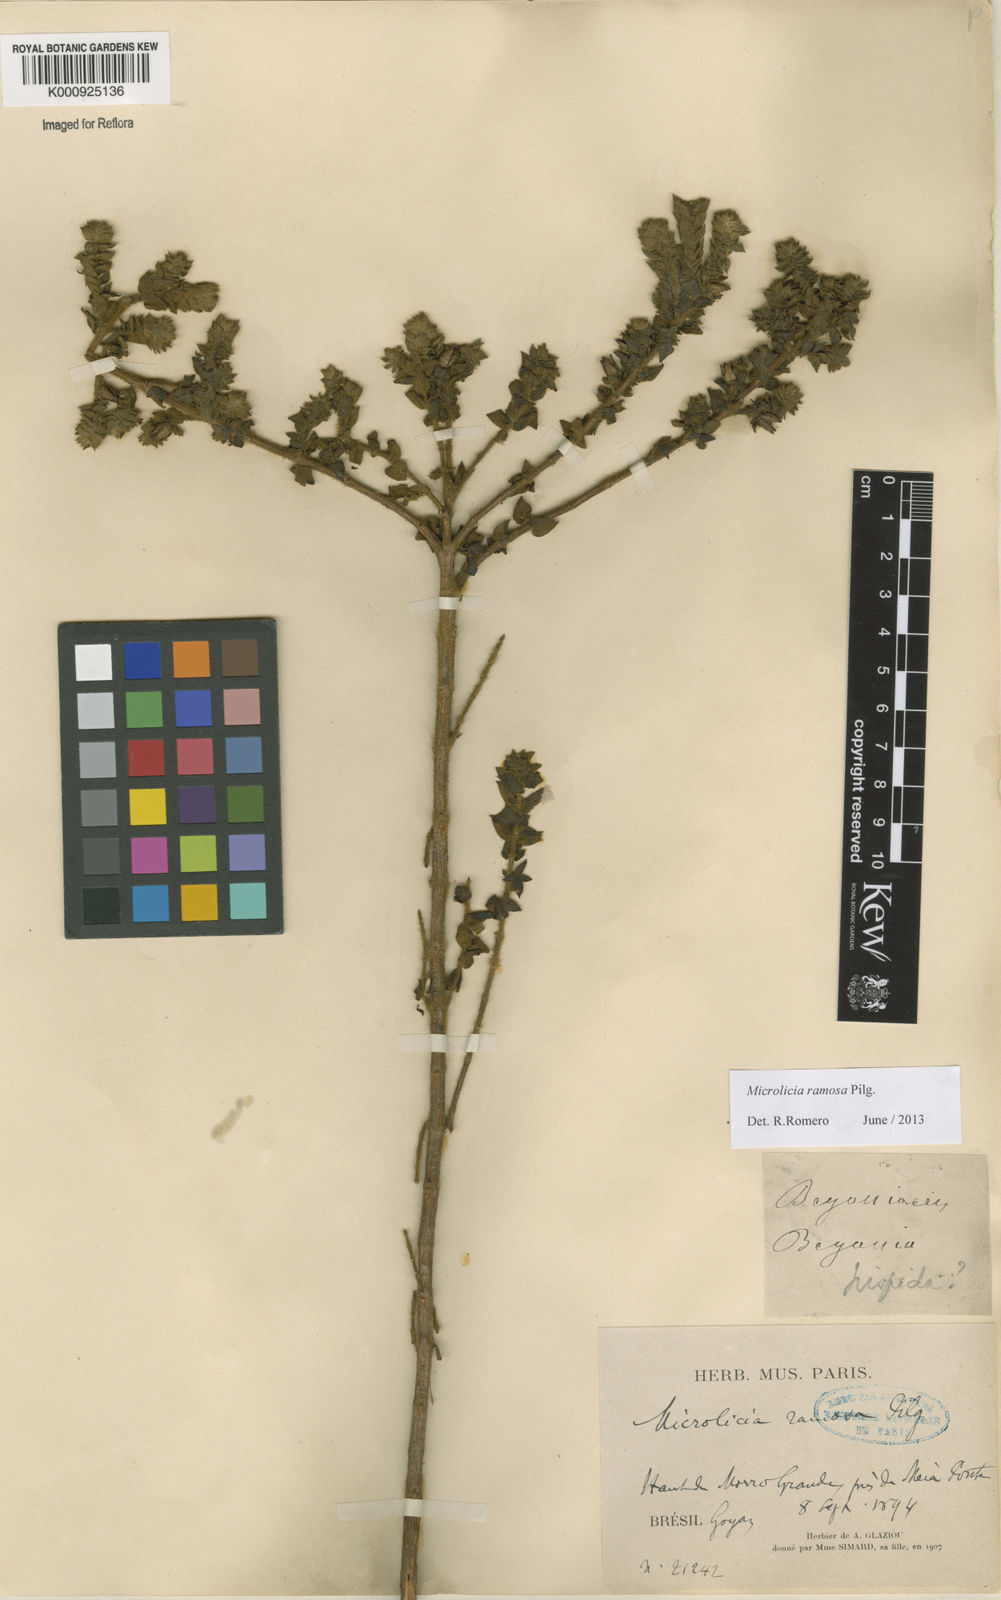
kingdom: Plantae
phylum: Tracheophyta
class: Magnoliopsida
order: Myrtales
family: Melastomataceae
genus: Microlicia
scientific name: Microlicia ramosa
